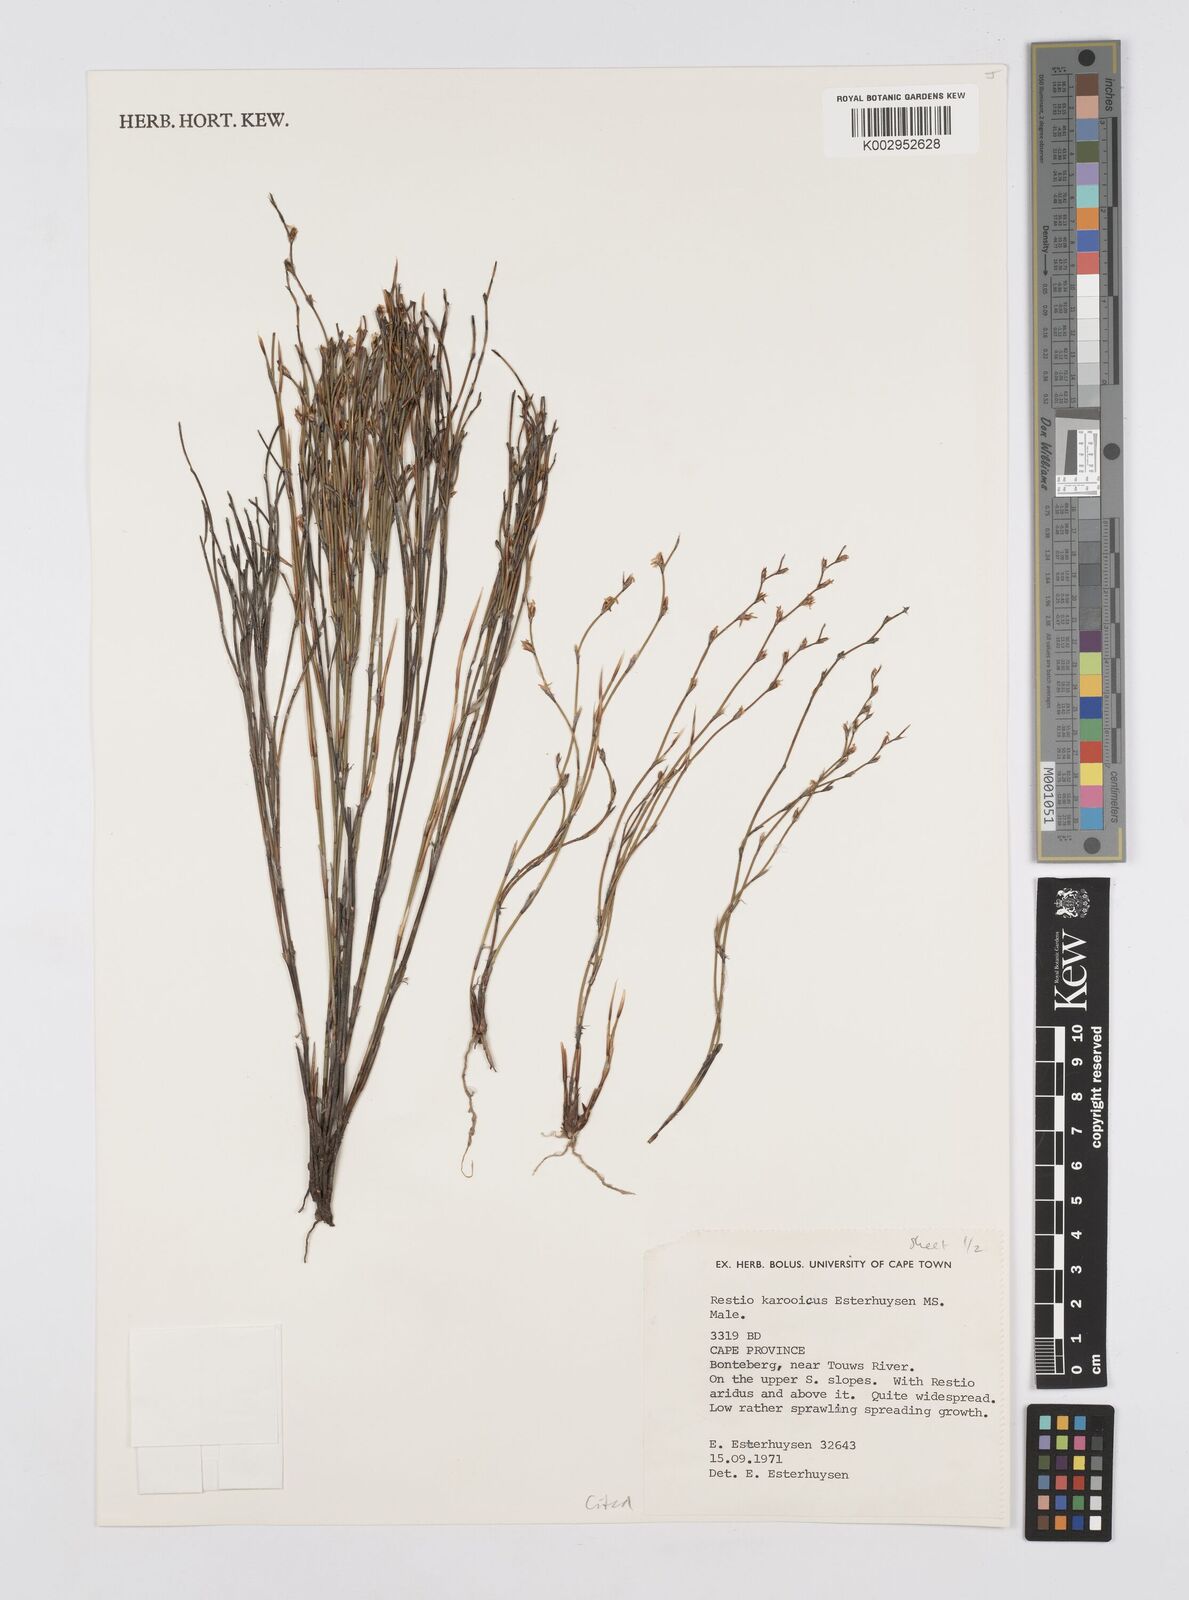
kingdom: Plantae
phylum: Tracheophyta
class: Liliopsida
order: Poales
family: Restionaceae
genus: Restio
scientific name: Restio karooicus
